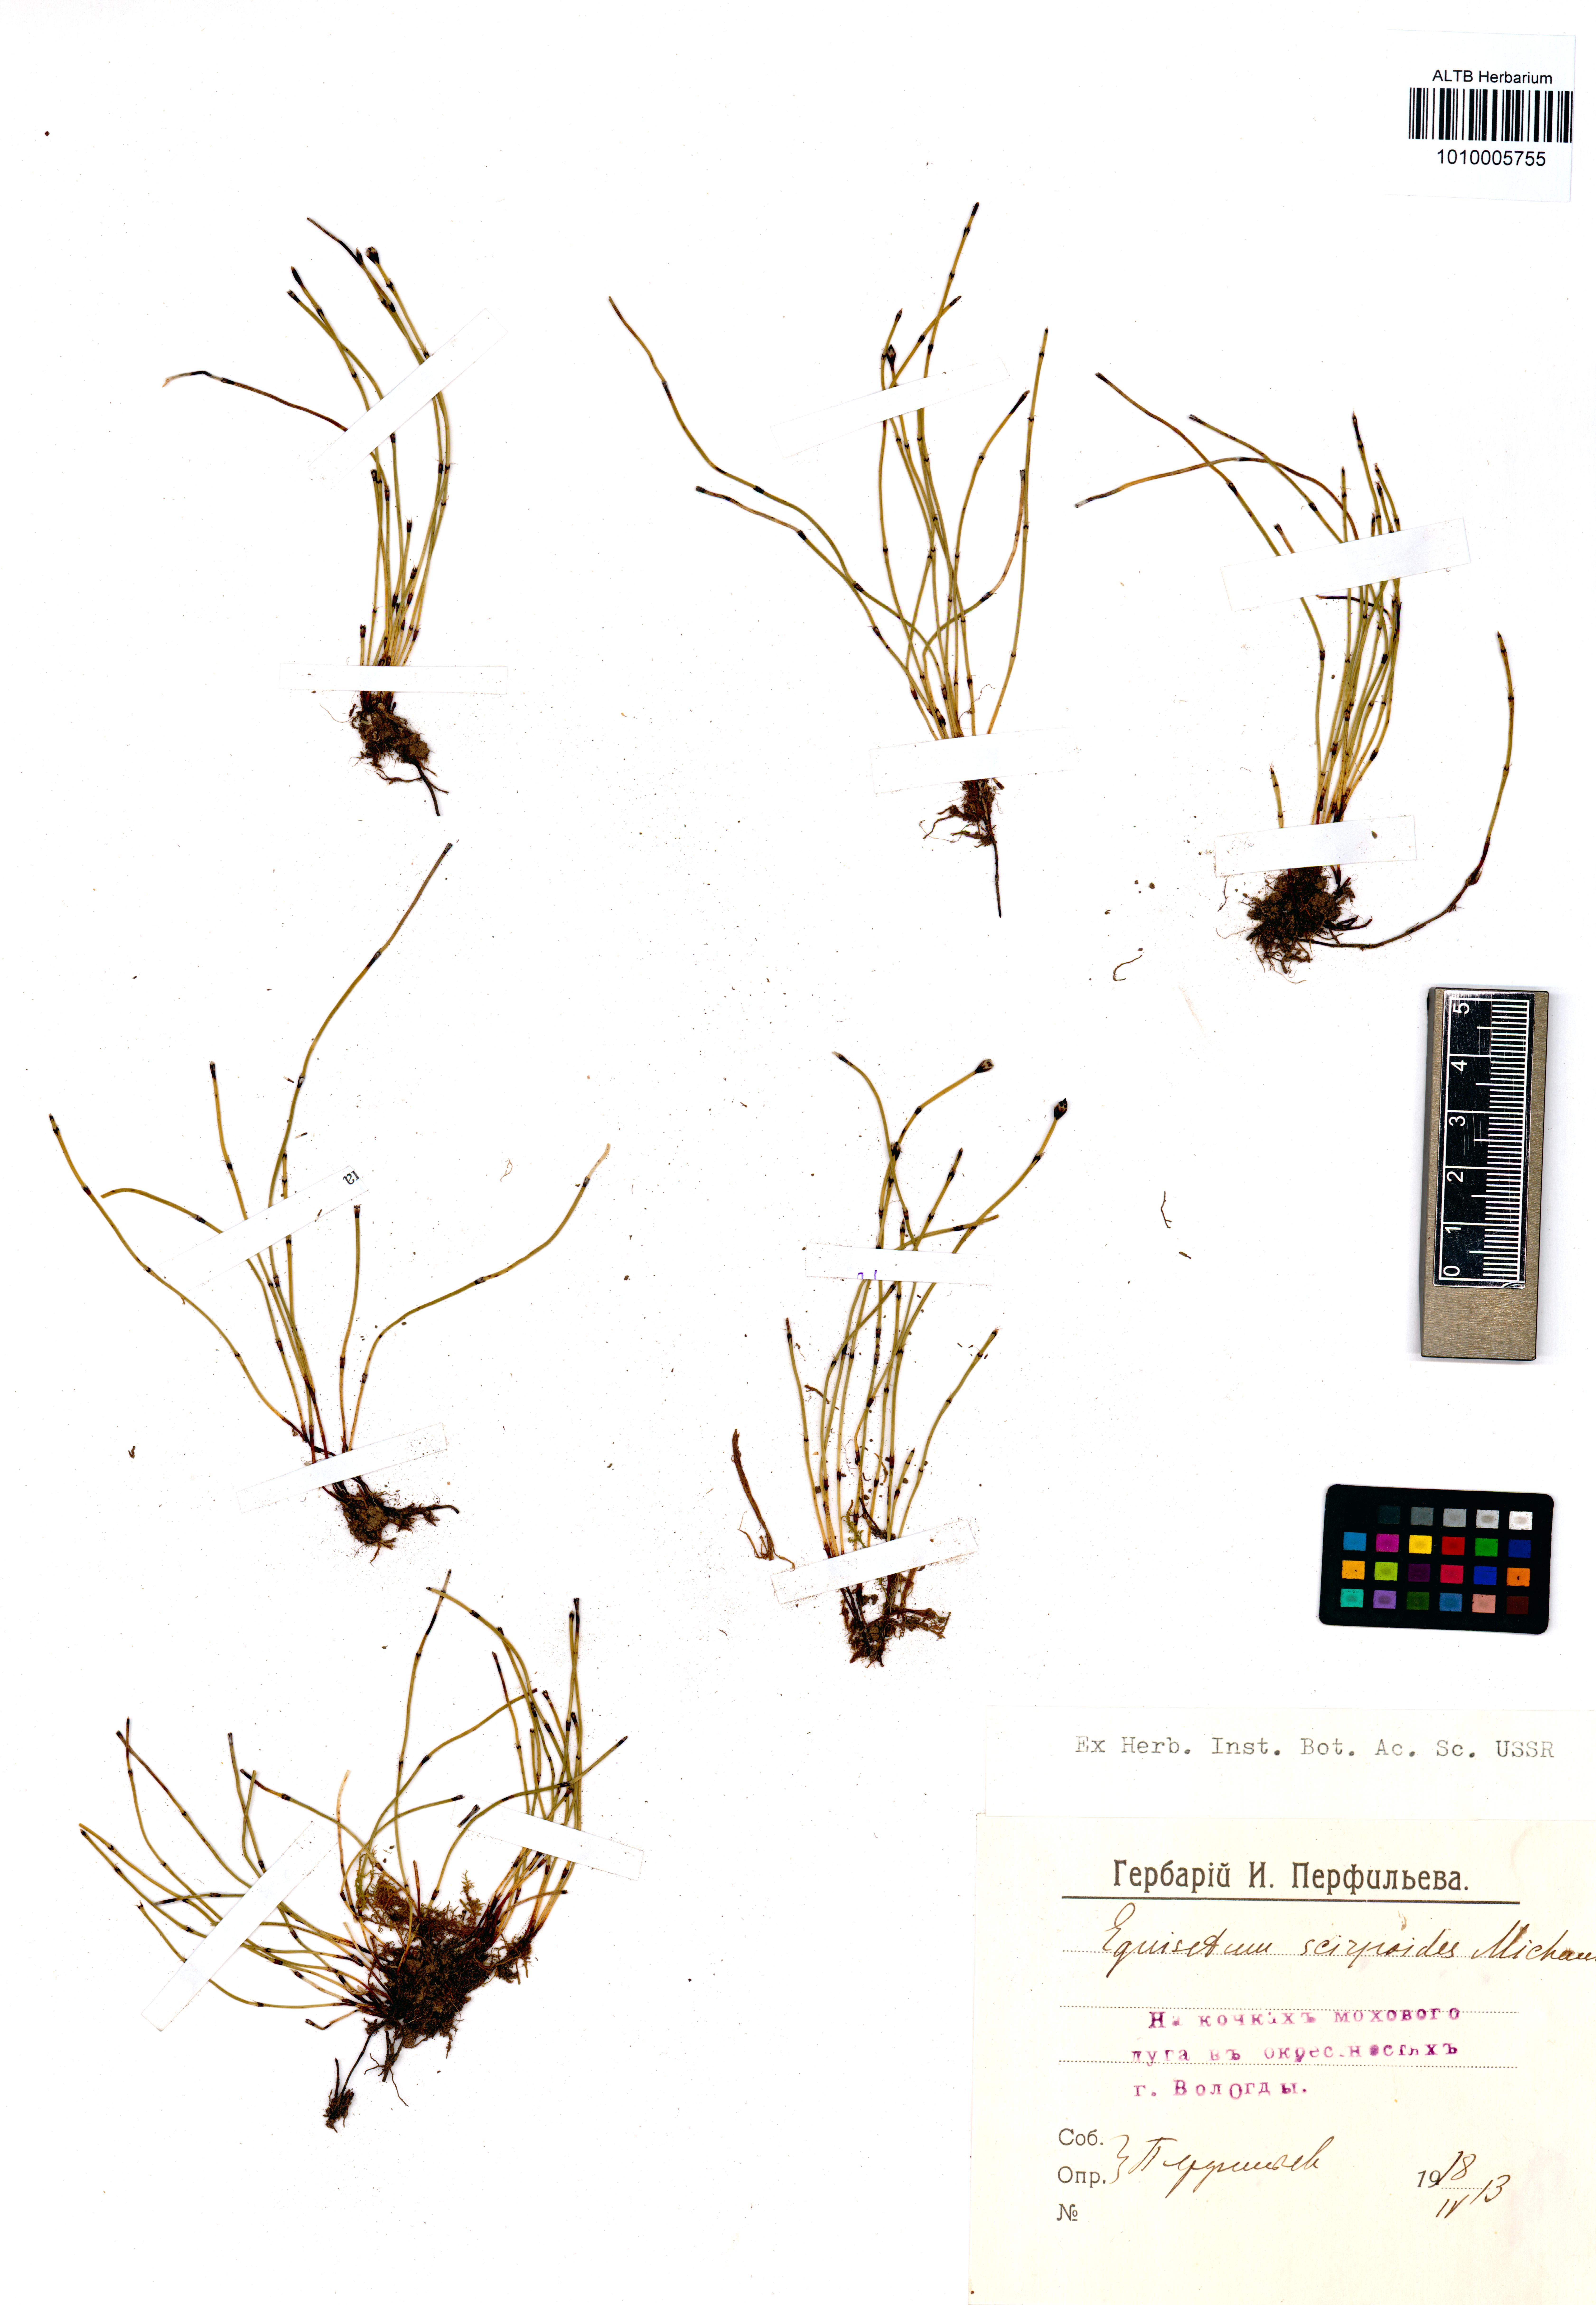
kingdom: Plantae
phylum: Tracheophyta
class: Polypodiopsida
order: Equisetales
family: Equisetaceae
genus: Equisetum
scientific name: Equisetum scirpoides
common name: Delicate horsetail
